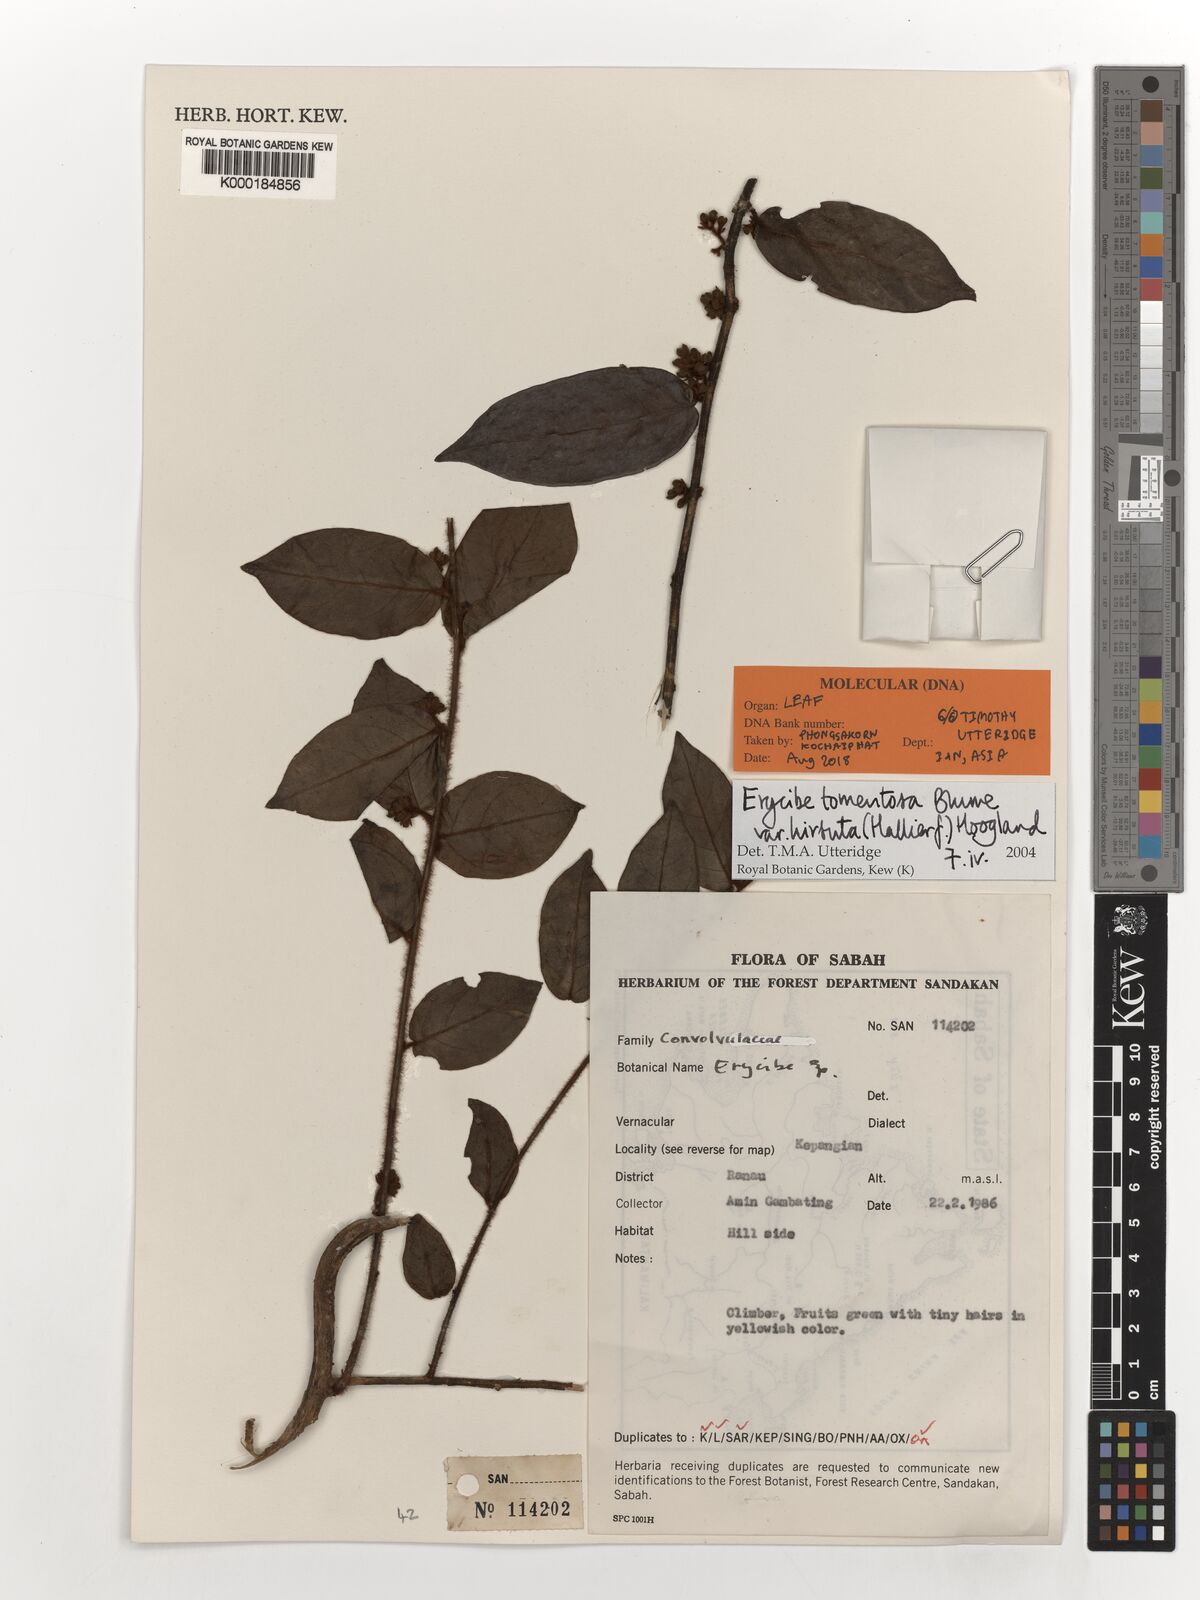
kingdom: Plantae
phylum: Tracheophyta
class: Magnoliopsida
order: Solanales
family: Convolvulaceae
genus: Erycibe
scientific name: Erycibe tomentosa
